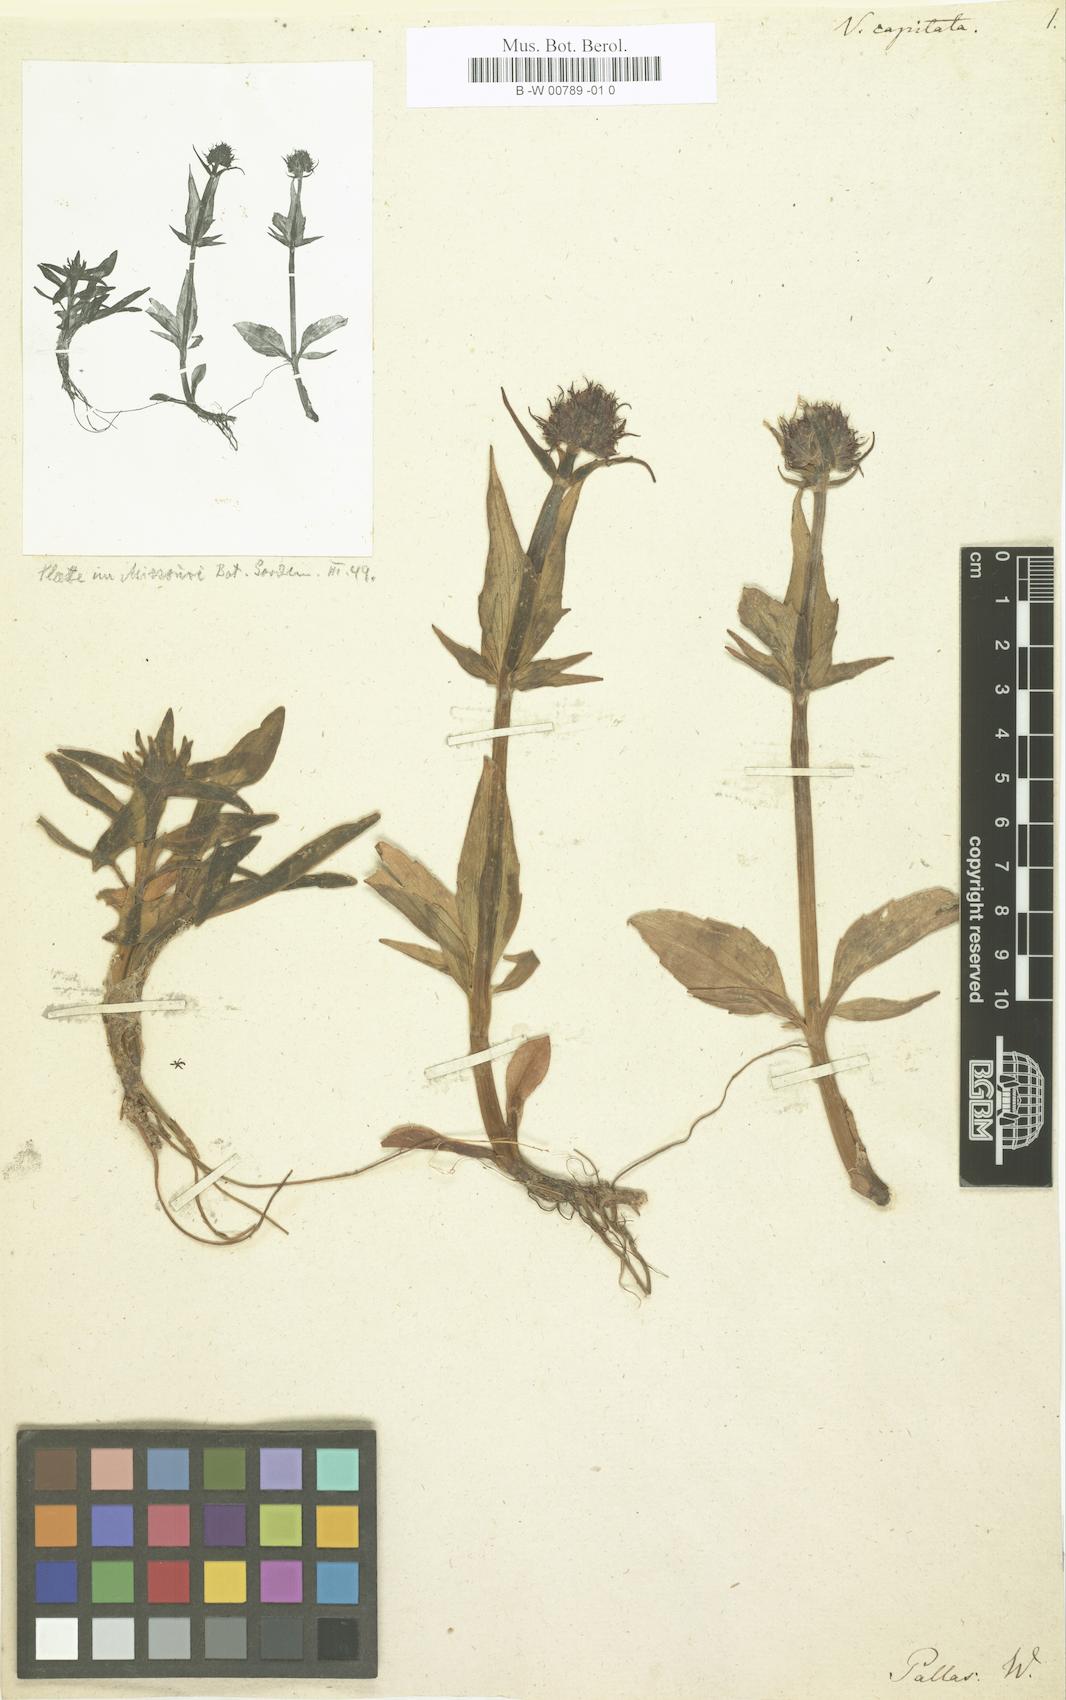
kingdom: Plantae
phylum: Tracheophyta
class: Magnoliopsida
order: Dipsacales
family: Caprifoliaceae
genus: Valeriana
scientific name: Valeriana capitata
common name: Capitate valerian
